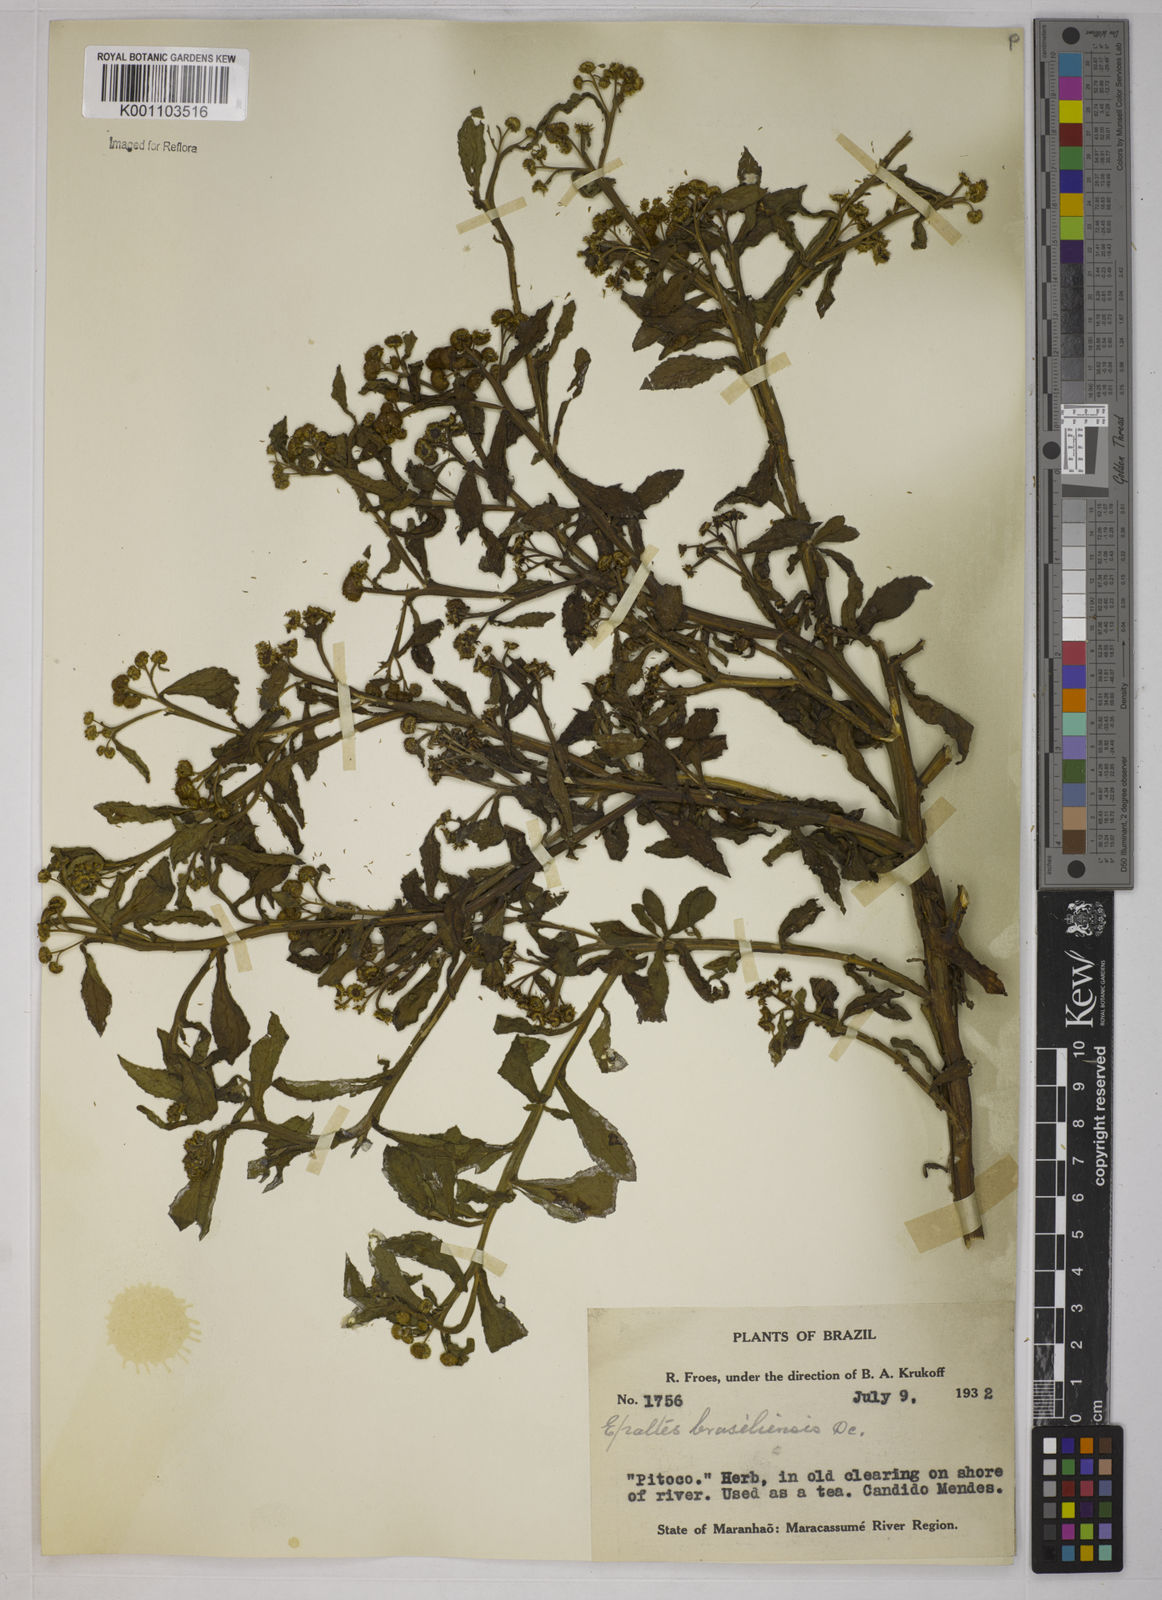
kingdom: Plantae
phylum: Tracheophyta
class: Magnoliopsida
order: Asterales
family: Asteraceae
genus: Epaltes
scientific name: Epaltes brasiliensis
